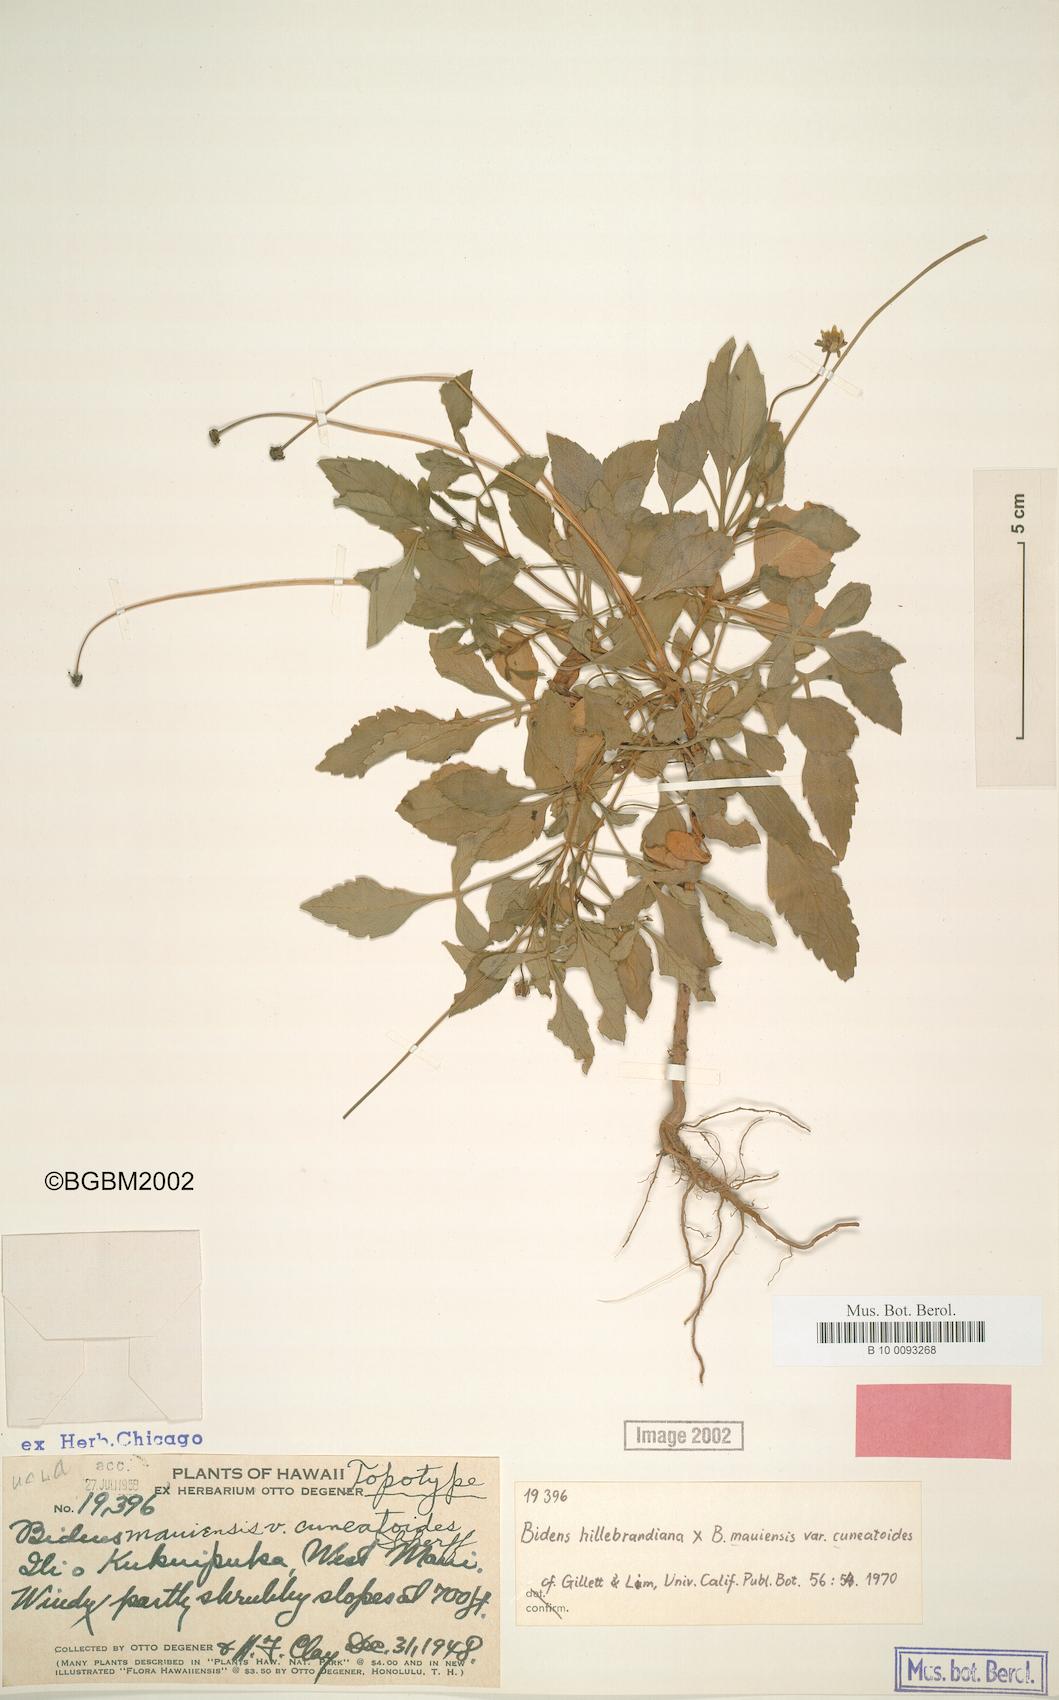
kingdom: Plantae
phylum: Tracheophyta
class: Magnoliopsida
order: Asterales
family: Asteraceae
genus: Bidens
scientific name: Bidens mauiensis
